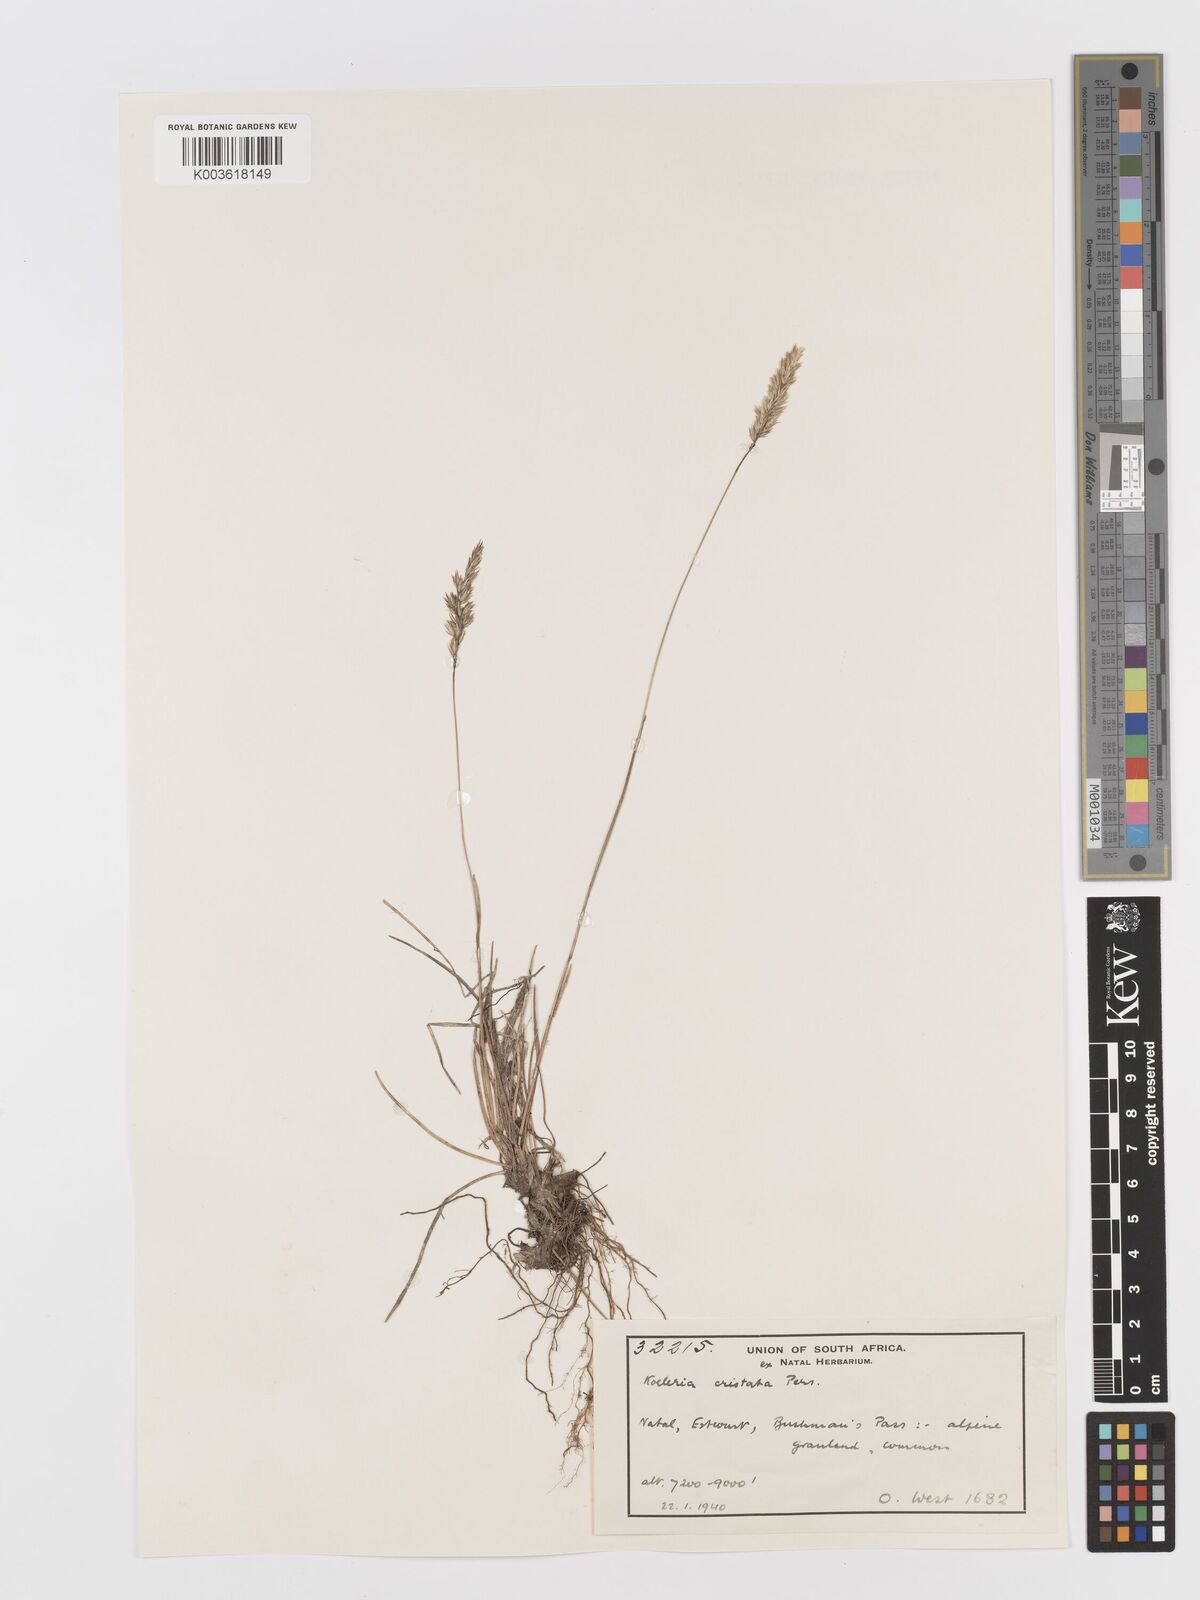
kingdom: Plantae
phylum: Tracheophyta
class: Liliopsida
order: Poales
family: Poaceae
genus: Koeleria
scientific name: Koeleria capensis
